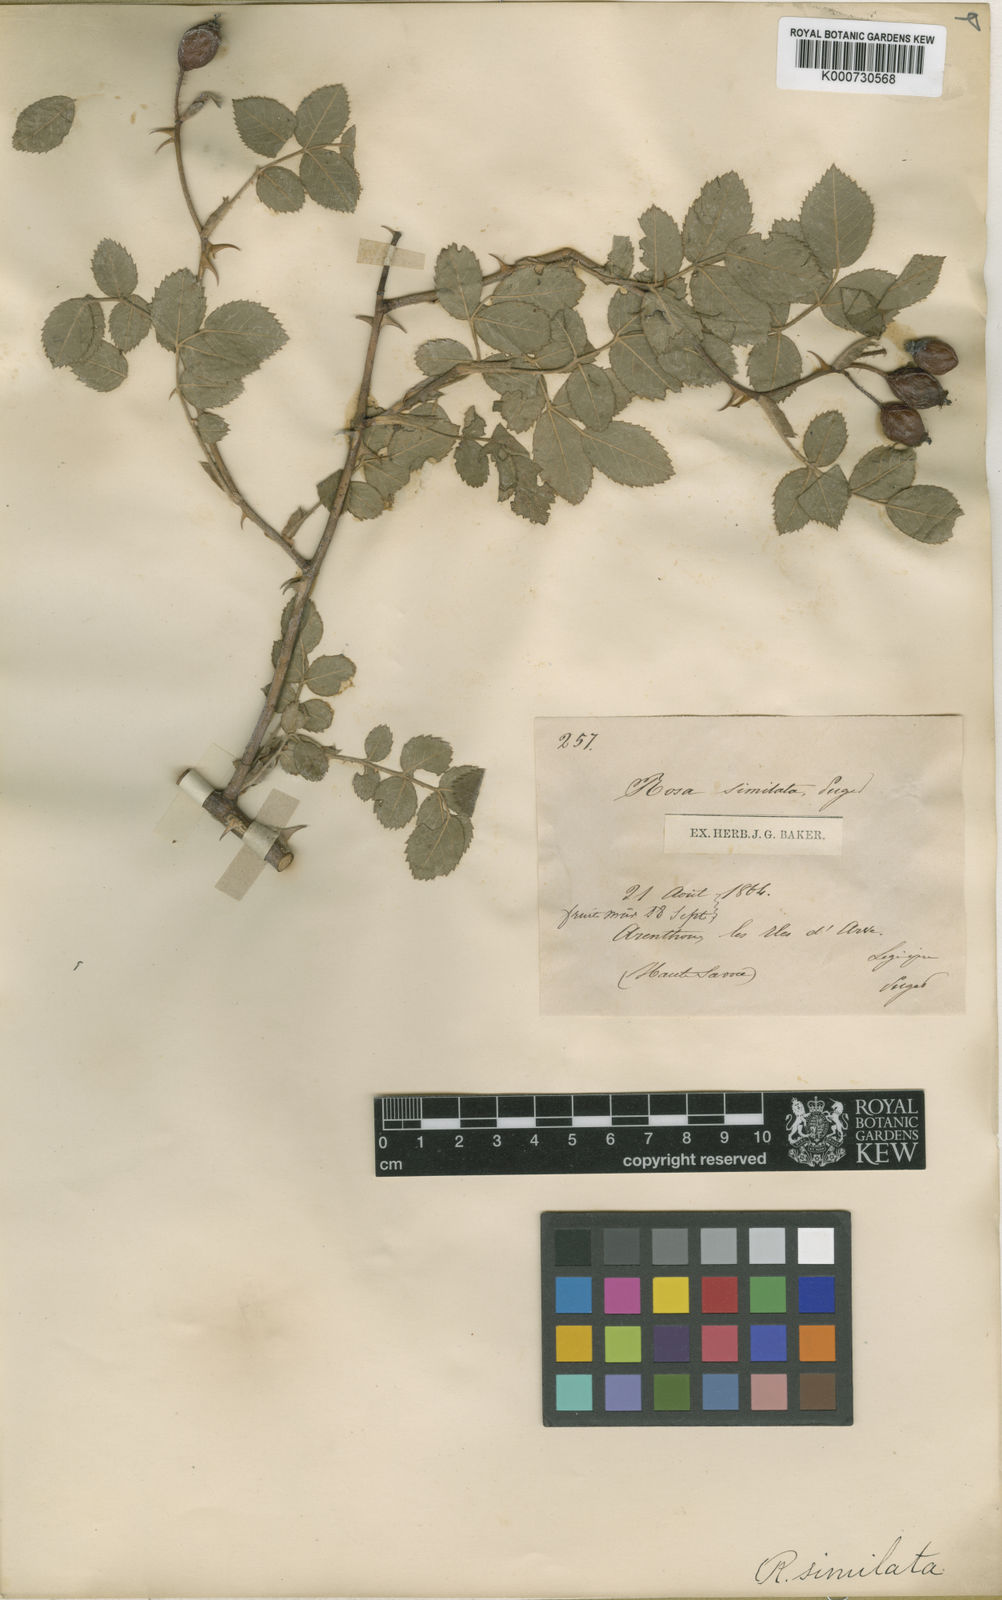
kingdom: Plantae
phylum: Tracheophyta
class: Magnoliopsida
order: Rosales
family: Rosaceae
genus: Rosa
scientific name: Rosa
